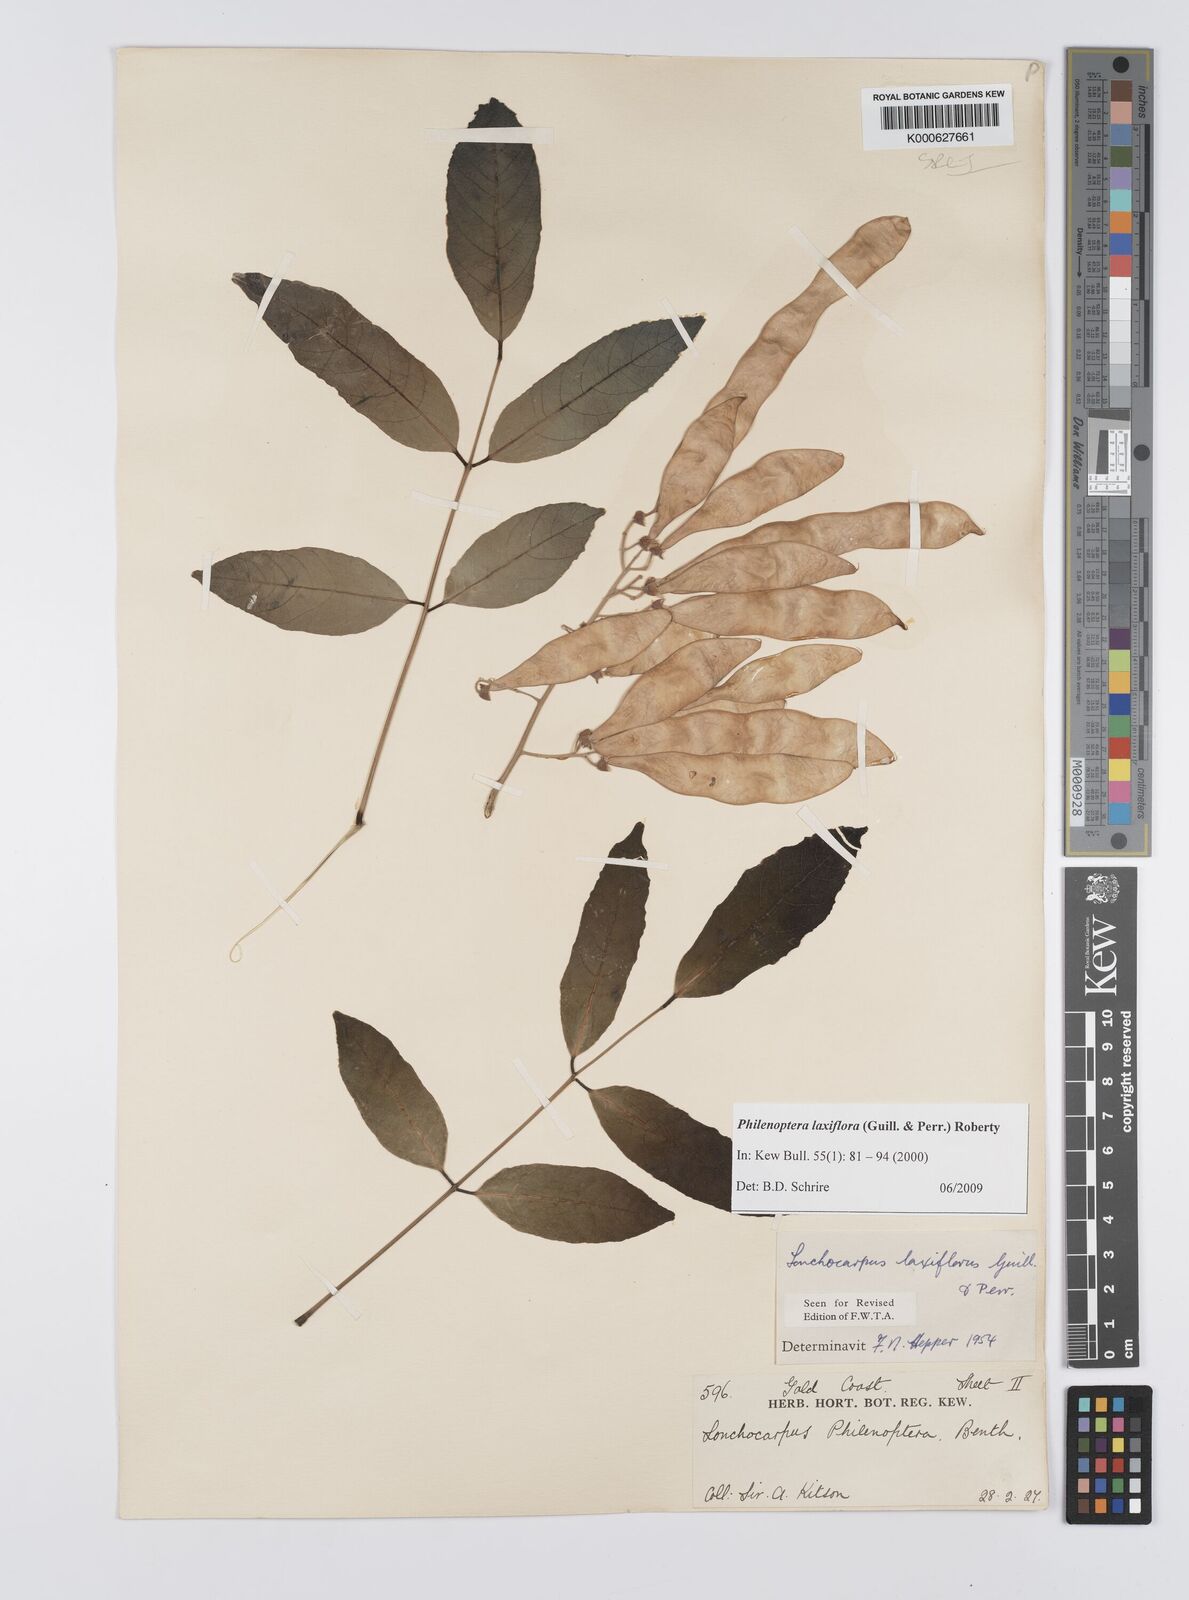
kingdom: Plantae
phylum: Tracheophyta
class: Magnoliopsida
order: Fabales
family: Fabaceae
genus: Philenoptera
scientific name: Philenoptera laxiflora
